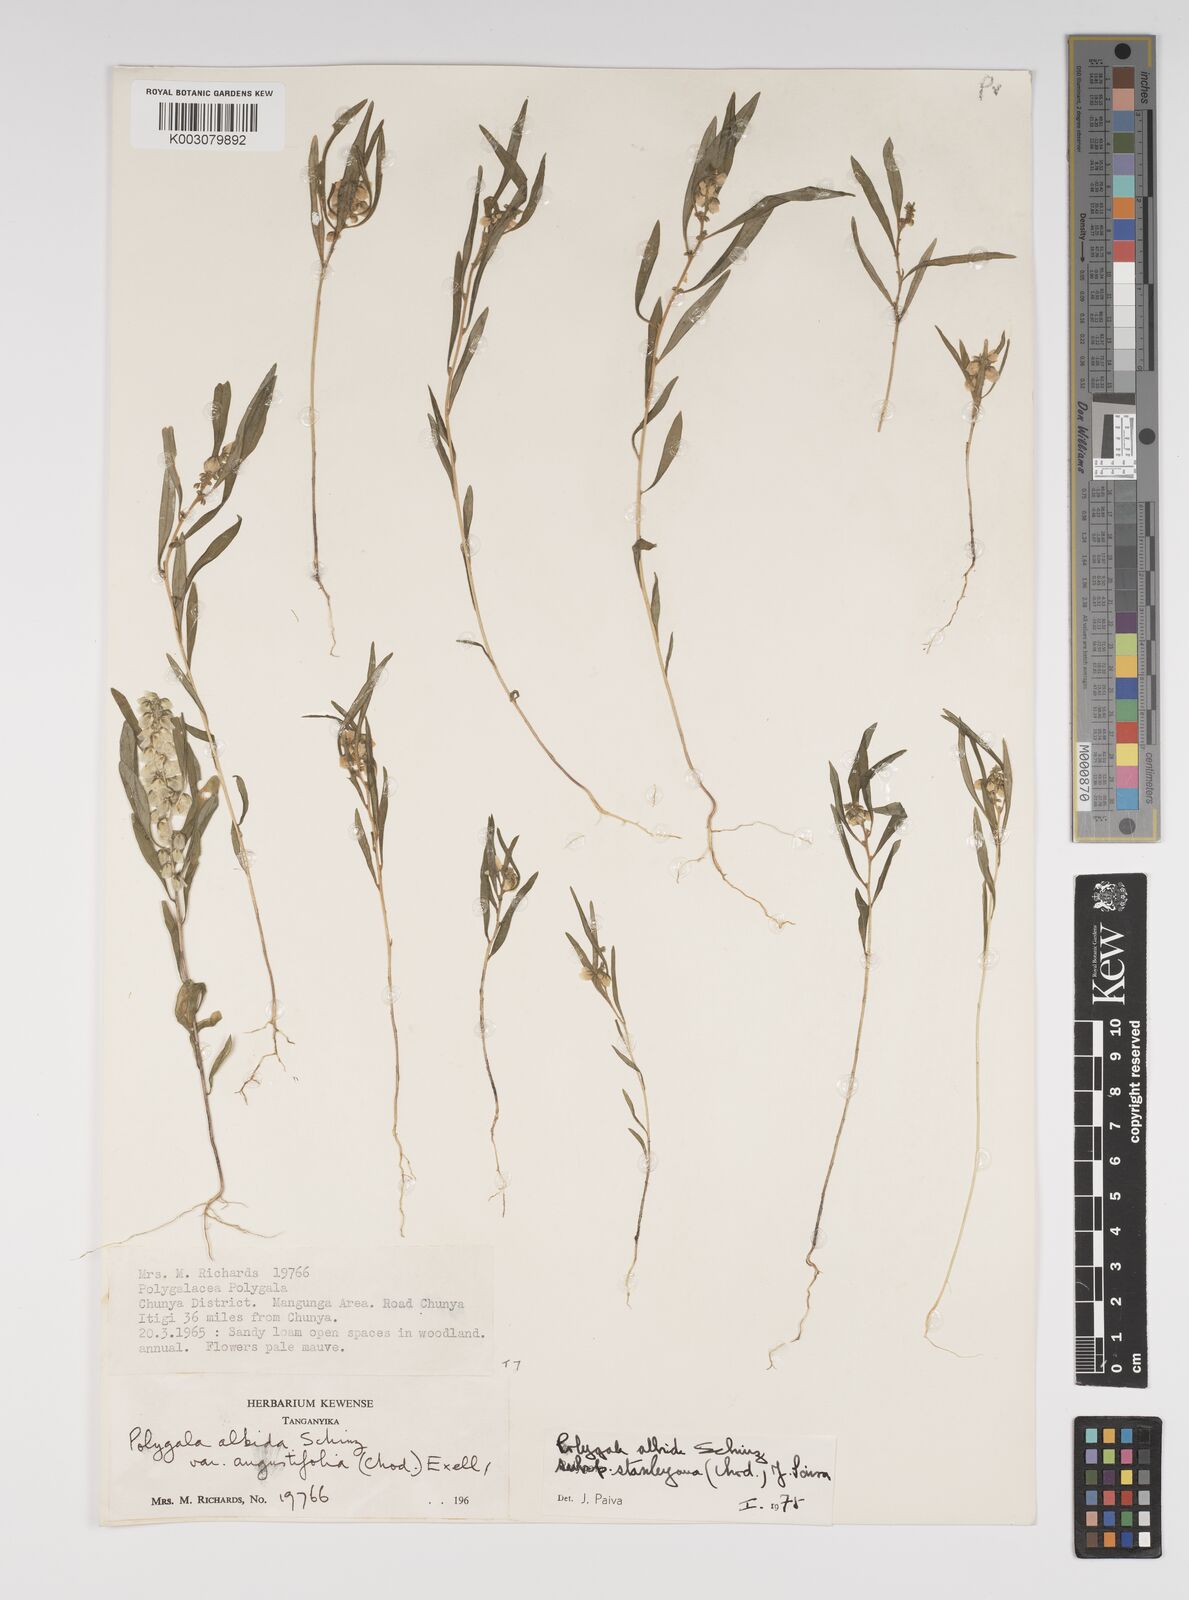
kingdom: Plantae
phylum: Tracheophyta
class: Magnoliopsida
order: Fabales
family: Polygalaceae
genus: Polygala
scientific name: Polygala albida
